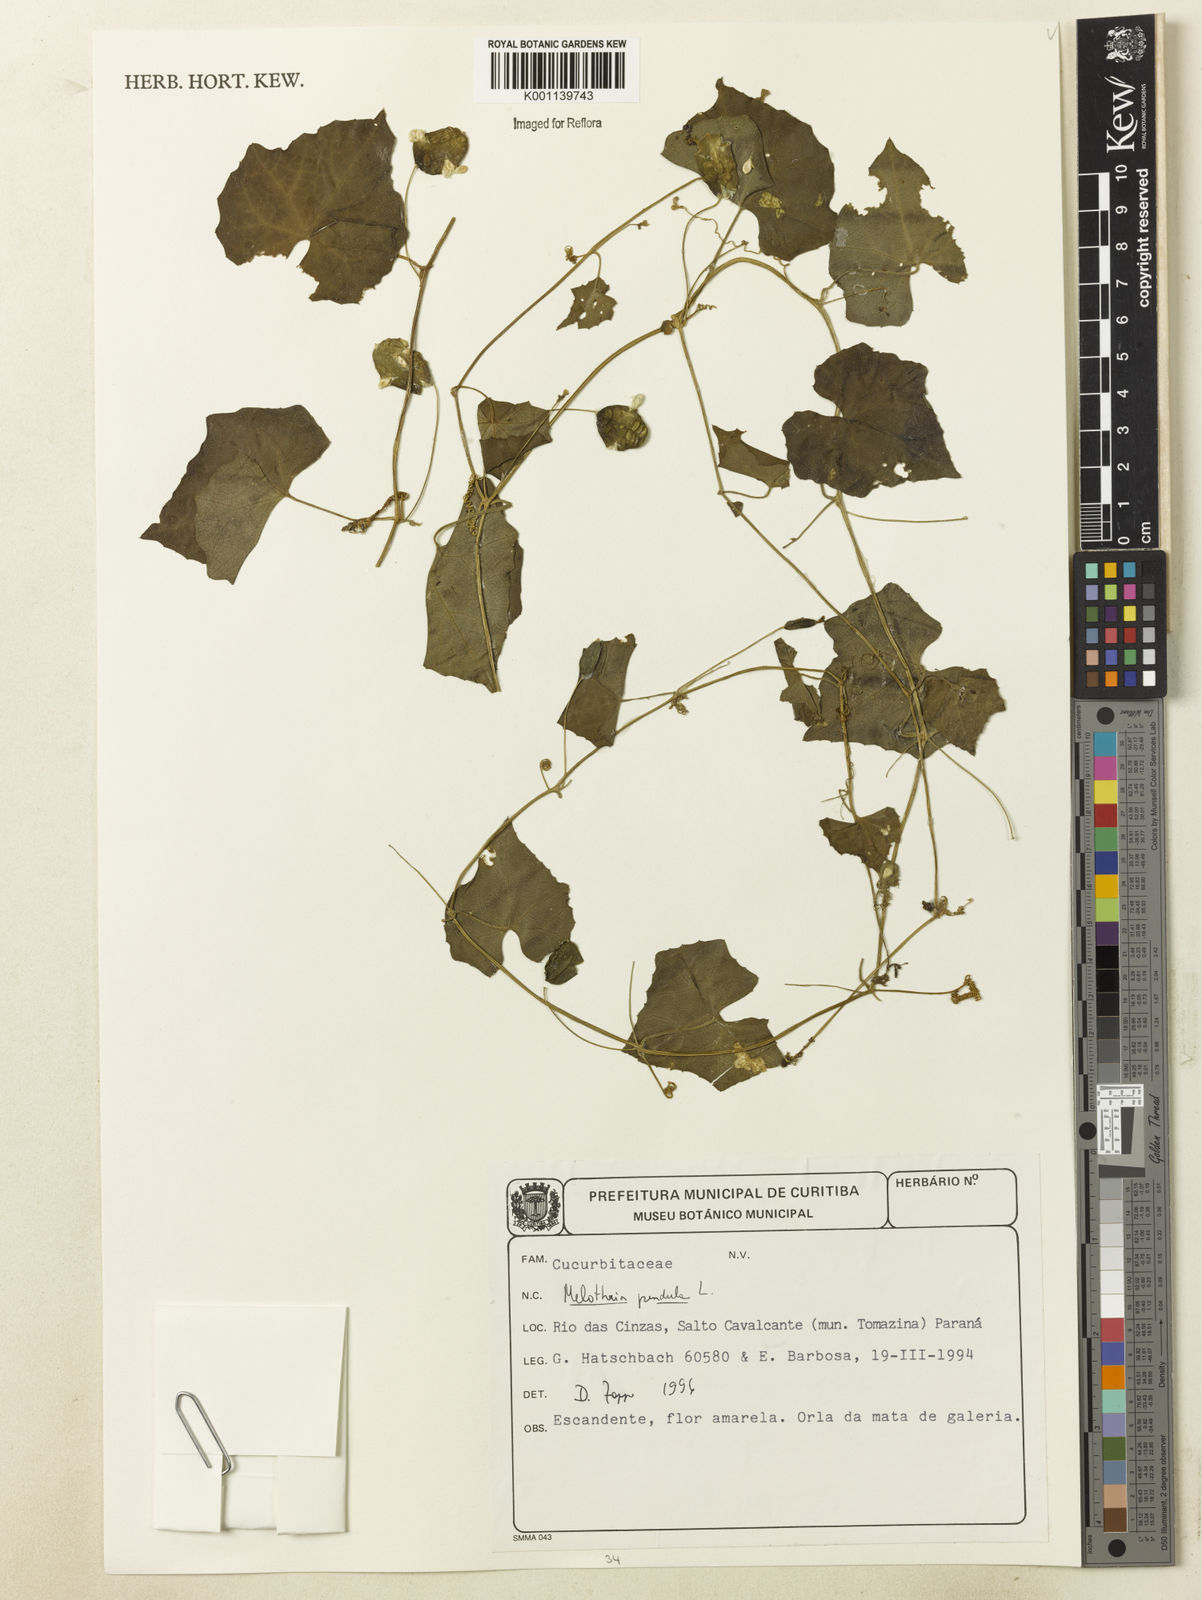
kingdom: Plantae
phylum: Tracheophyta
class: Magnoliopsida
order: Cucurbitales
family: Cucurbitaceae
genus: Melothria
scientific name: Melothria pendula
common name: Creeping-cucumber
